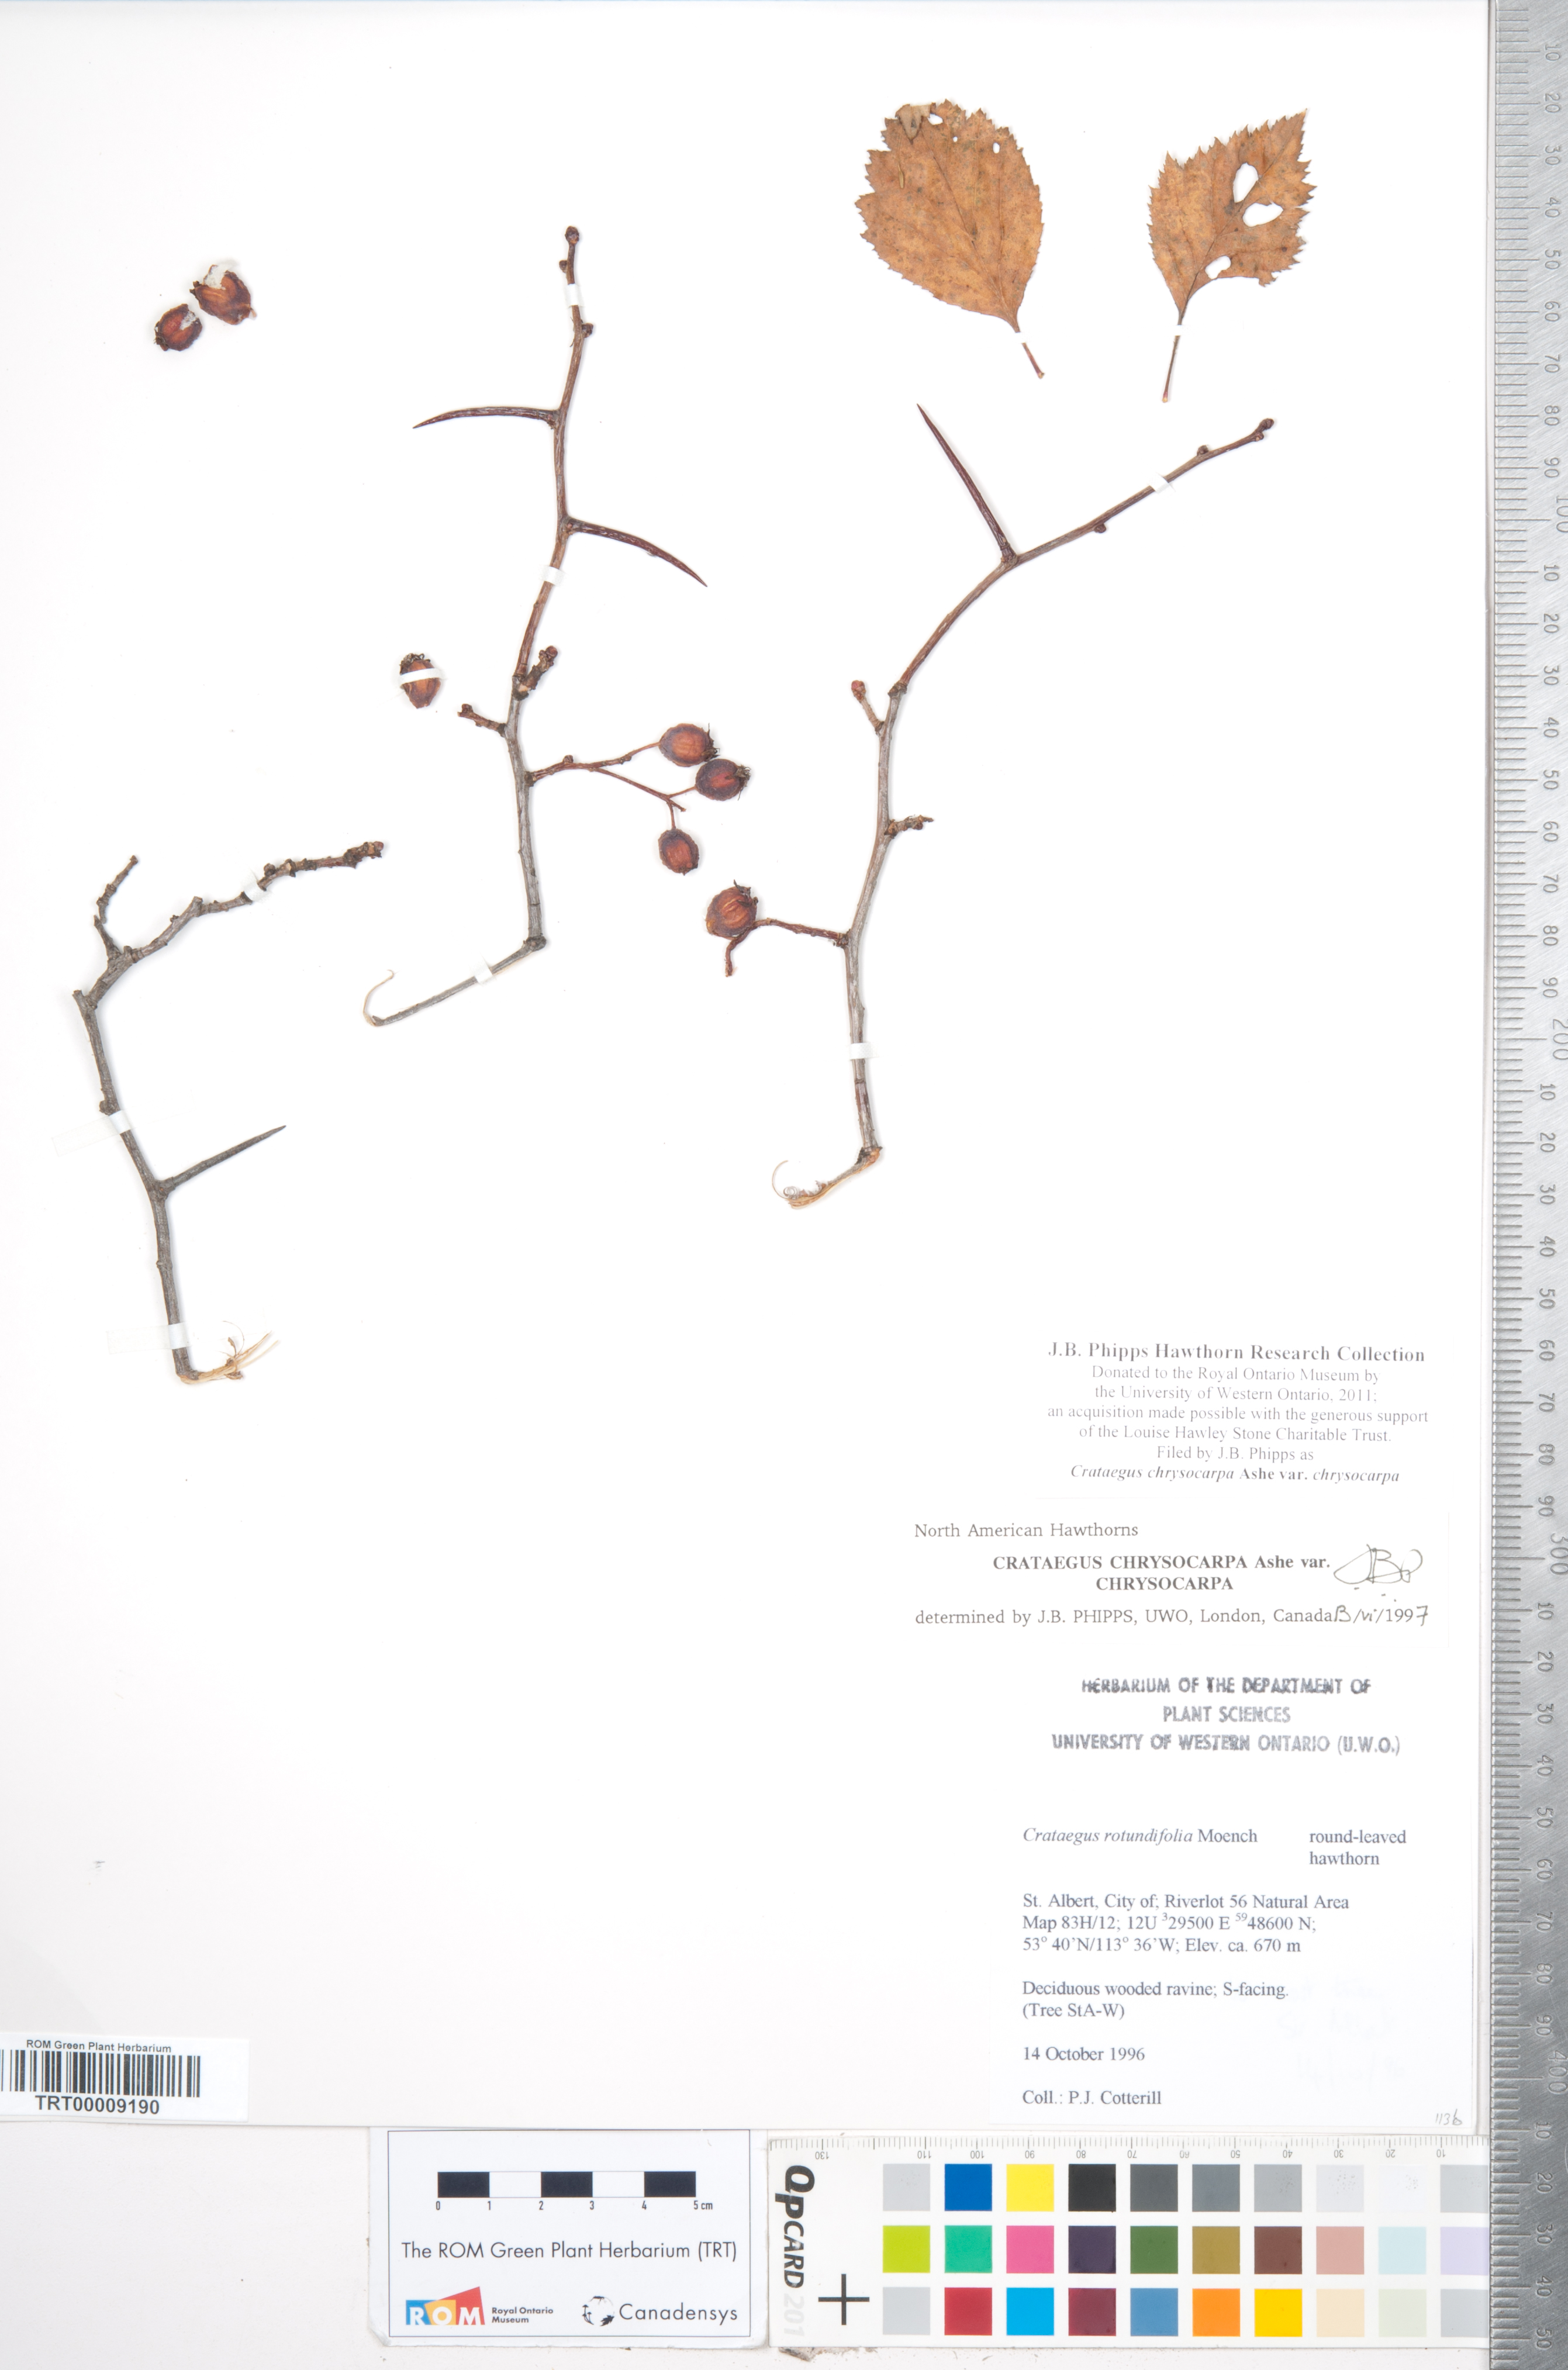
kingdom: Plantae
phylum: Tracheophyta
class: Magnoliopsida
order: Rosales
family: Rosaceae
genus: Crataegus
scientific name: Crataegus chrysocarpa
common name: Fire-berry hawthorn
